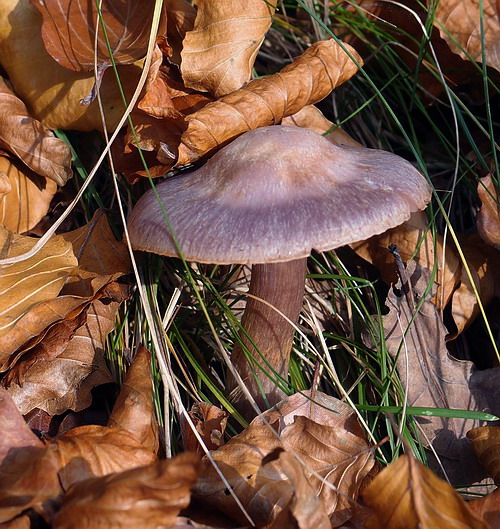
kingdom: Fungi
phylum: Basidiomycota
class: Agaricomycetes
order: Agaricales
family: Cortinariaceae
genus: Cortinarius
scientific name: Cortinarius alboviolaceus
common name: lysviolet slørhat
